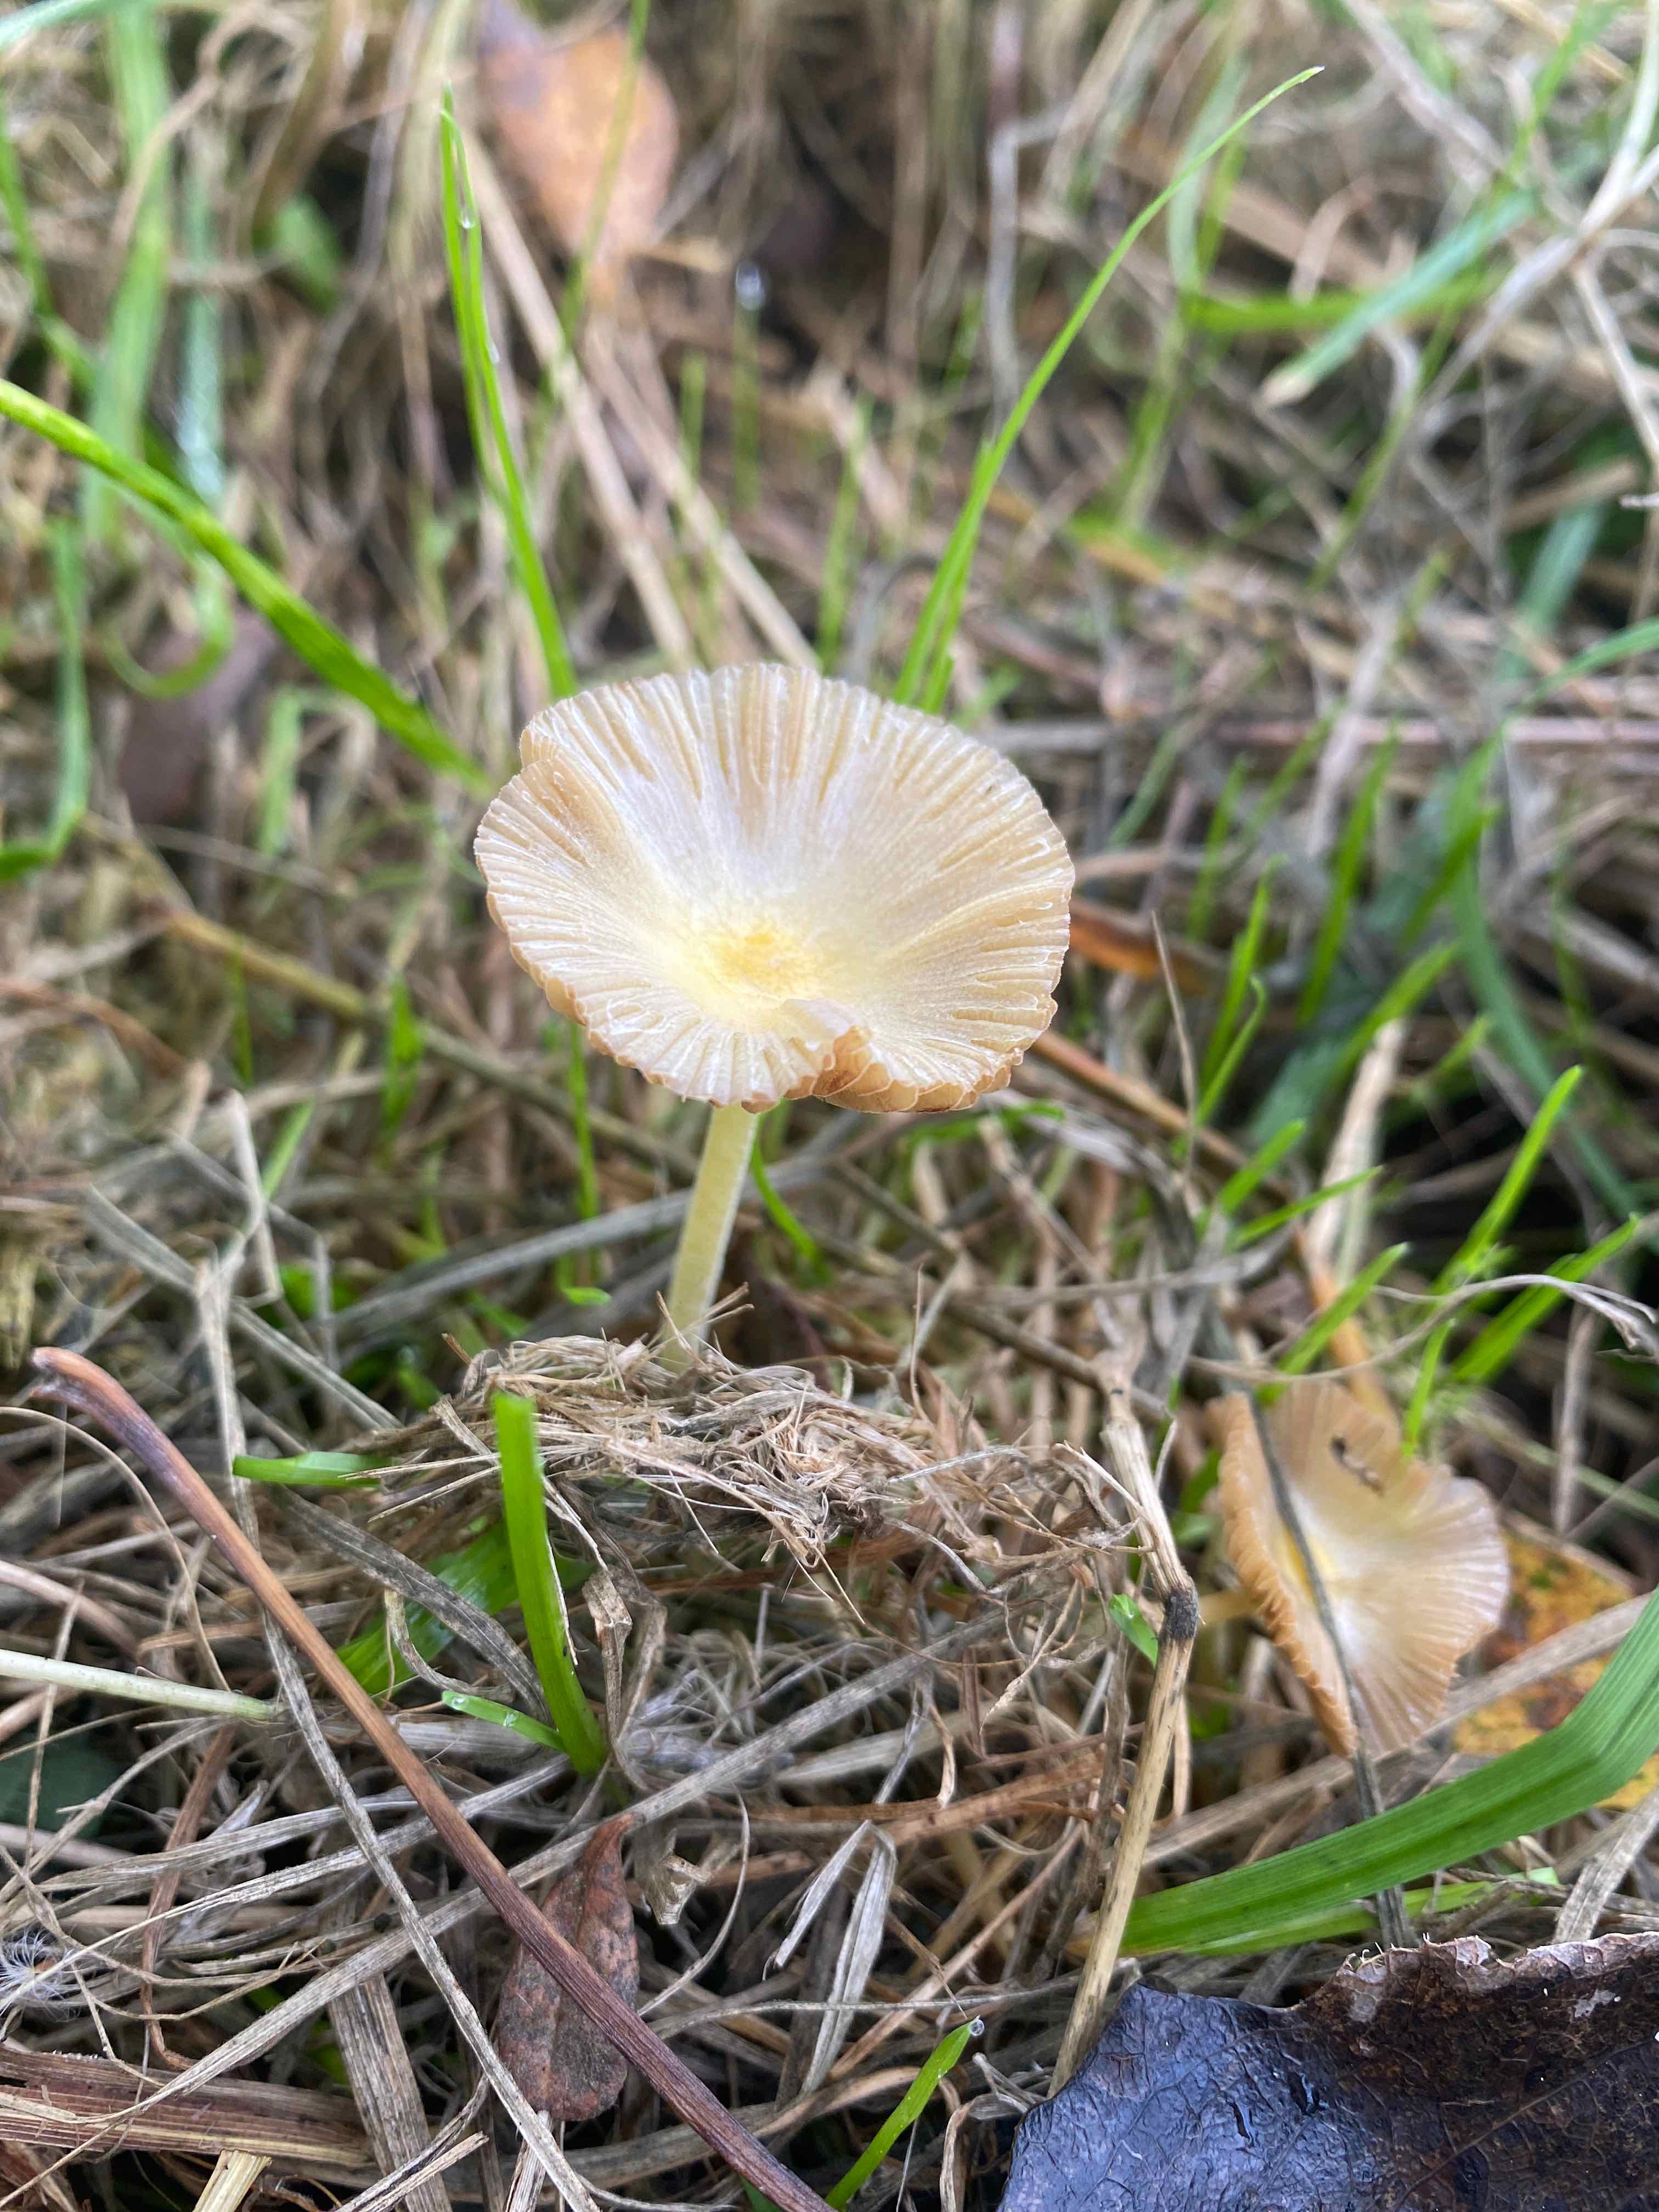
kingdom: Fungi
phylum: Basidiomycota
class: Agaricomycetes
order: Agaricales
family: Bolbitiaceae
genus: Bolbitius
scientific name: Bolbitius titubans
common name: almindelig gulhat
